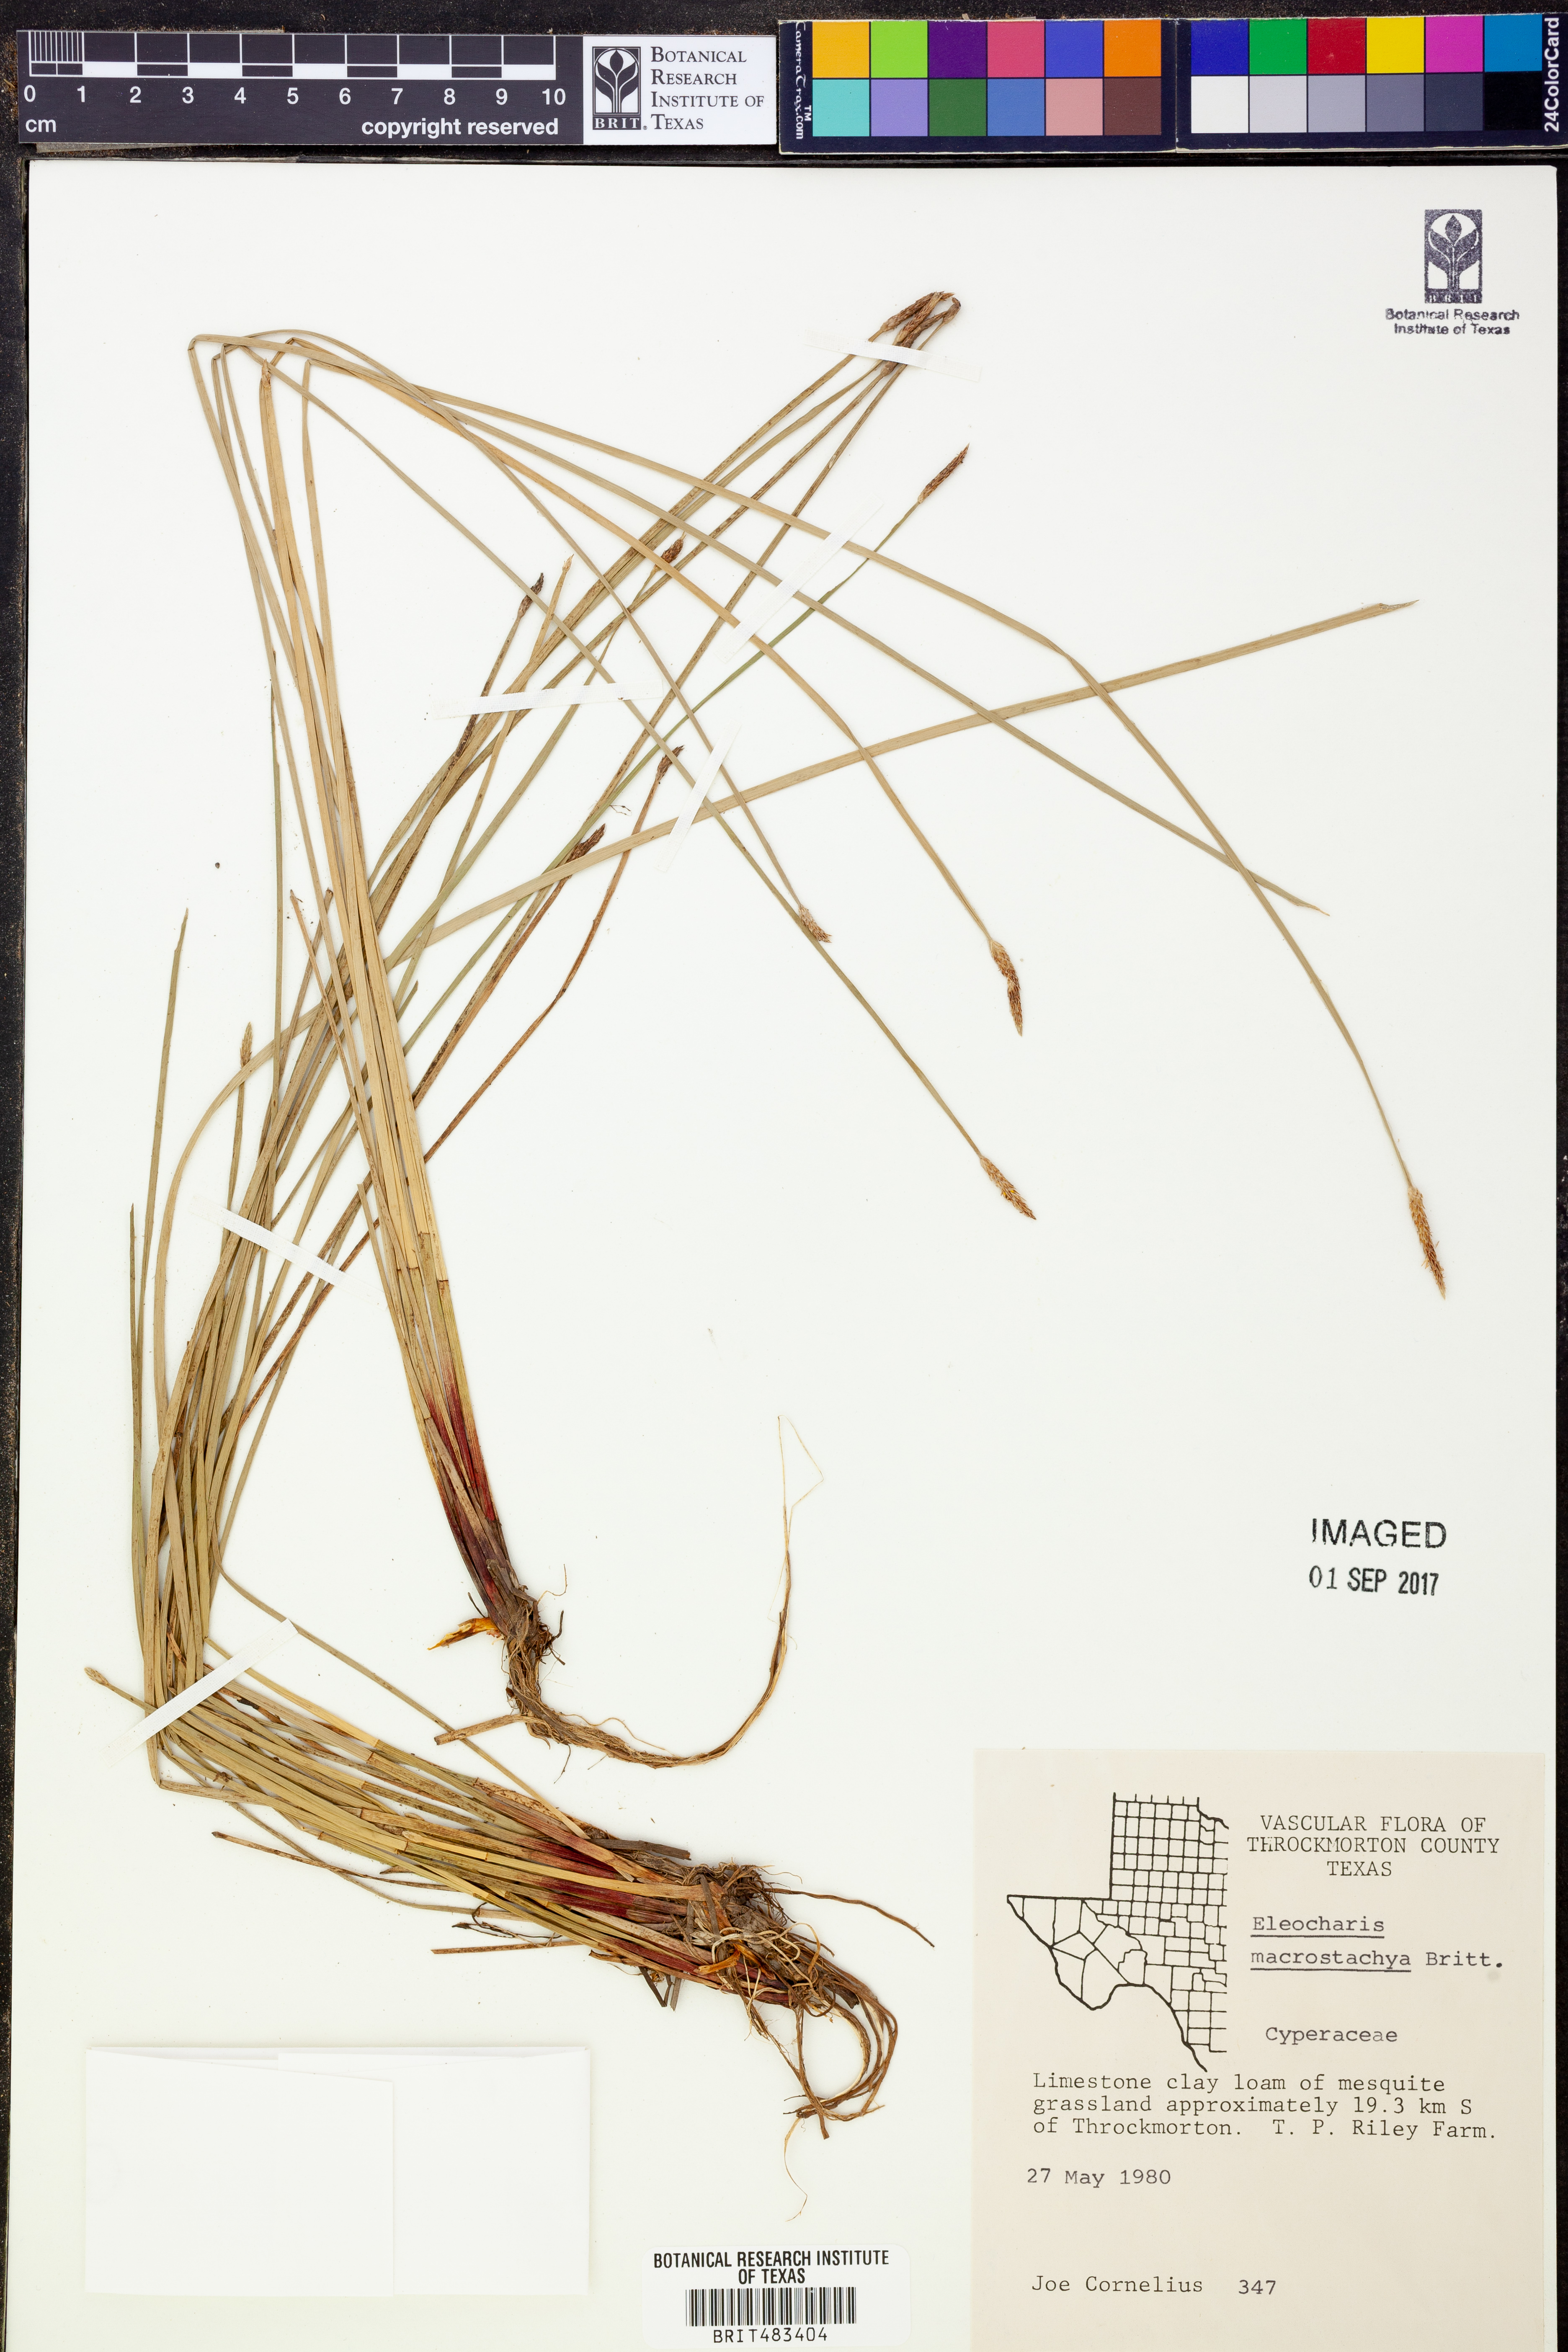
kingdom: Plantae
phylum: Tracheophyta
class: Liliopsida
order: Poales
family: Cyperaceae
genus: Eleocharis
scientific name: Eleocharis macrostachya
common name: Pale spikerush
